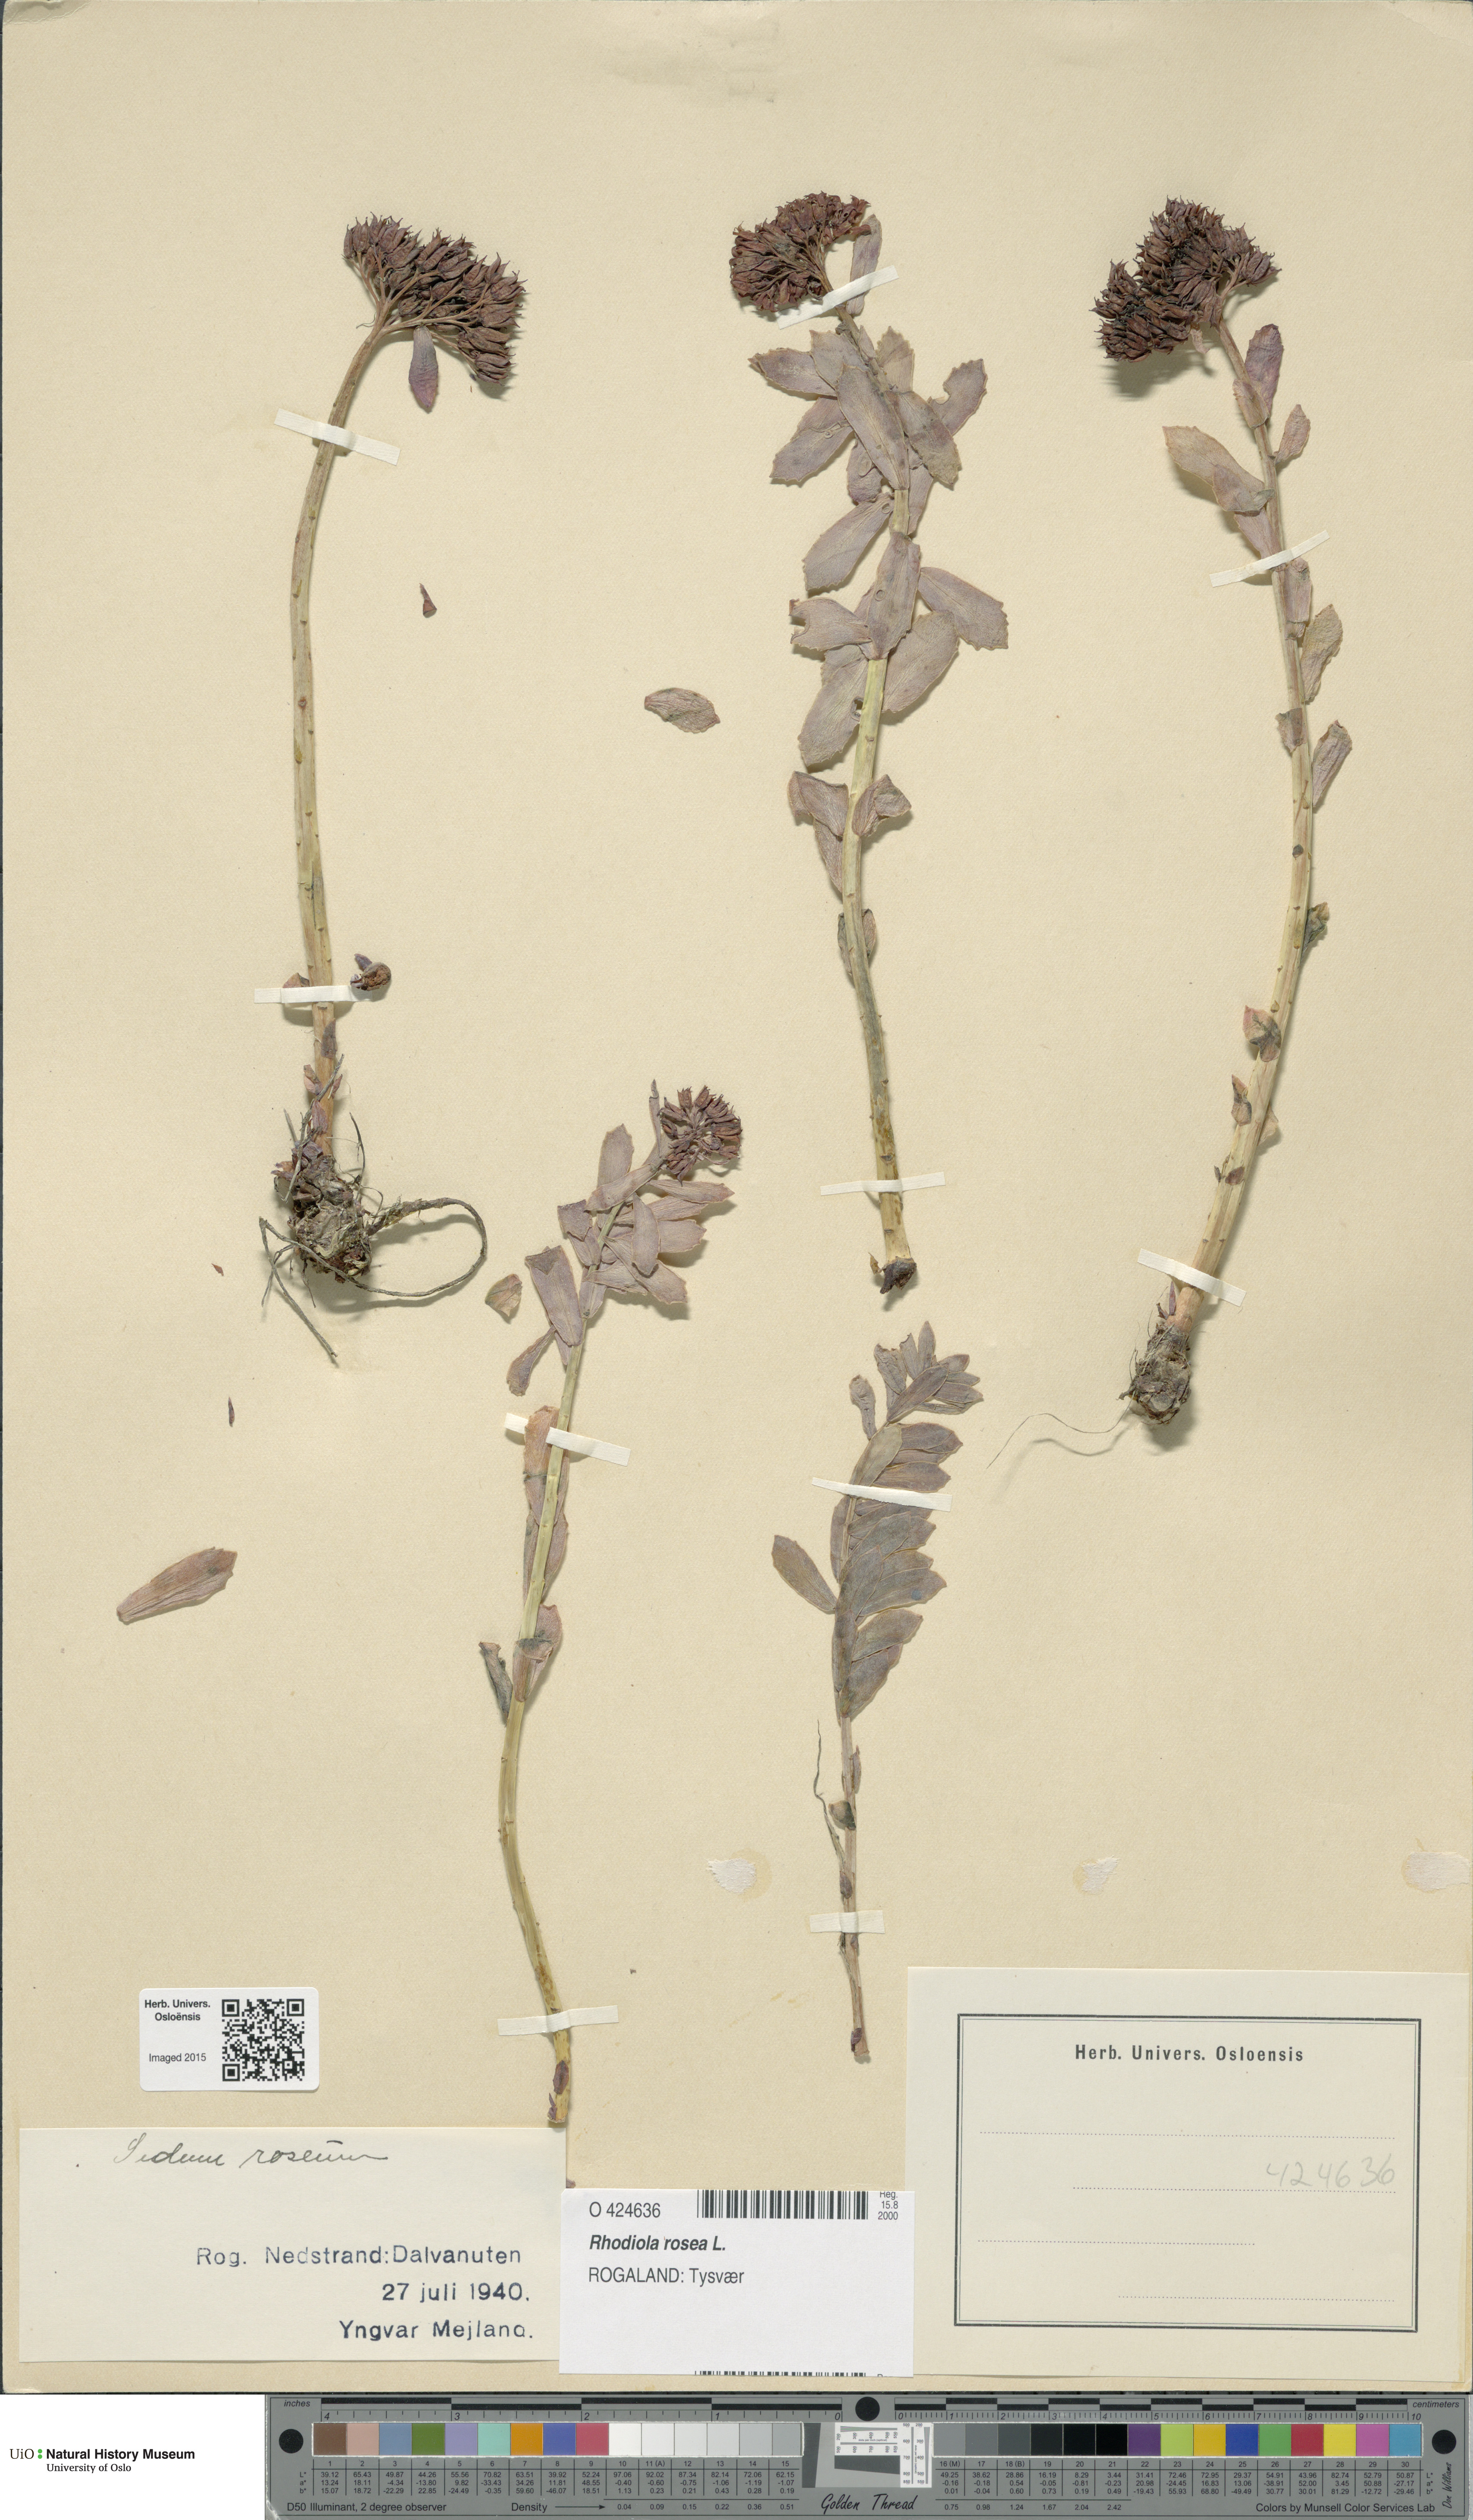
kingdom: Plantae
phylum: Tracheophyta
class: Magnoliopsida
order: Saxifragales
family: Crassulaceae
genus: Rhodiola
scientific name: Rhodiola rosea
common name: Roseroot
